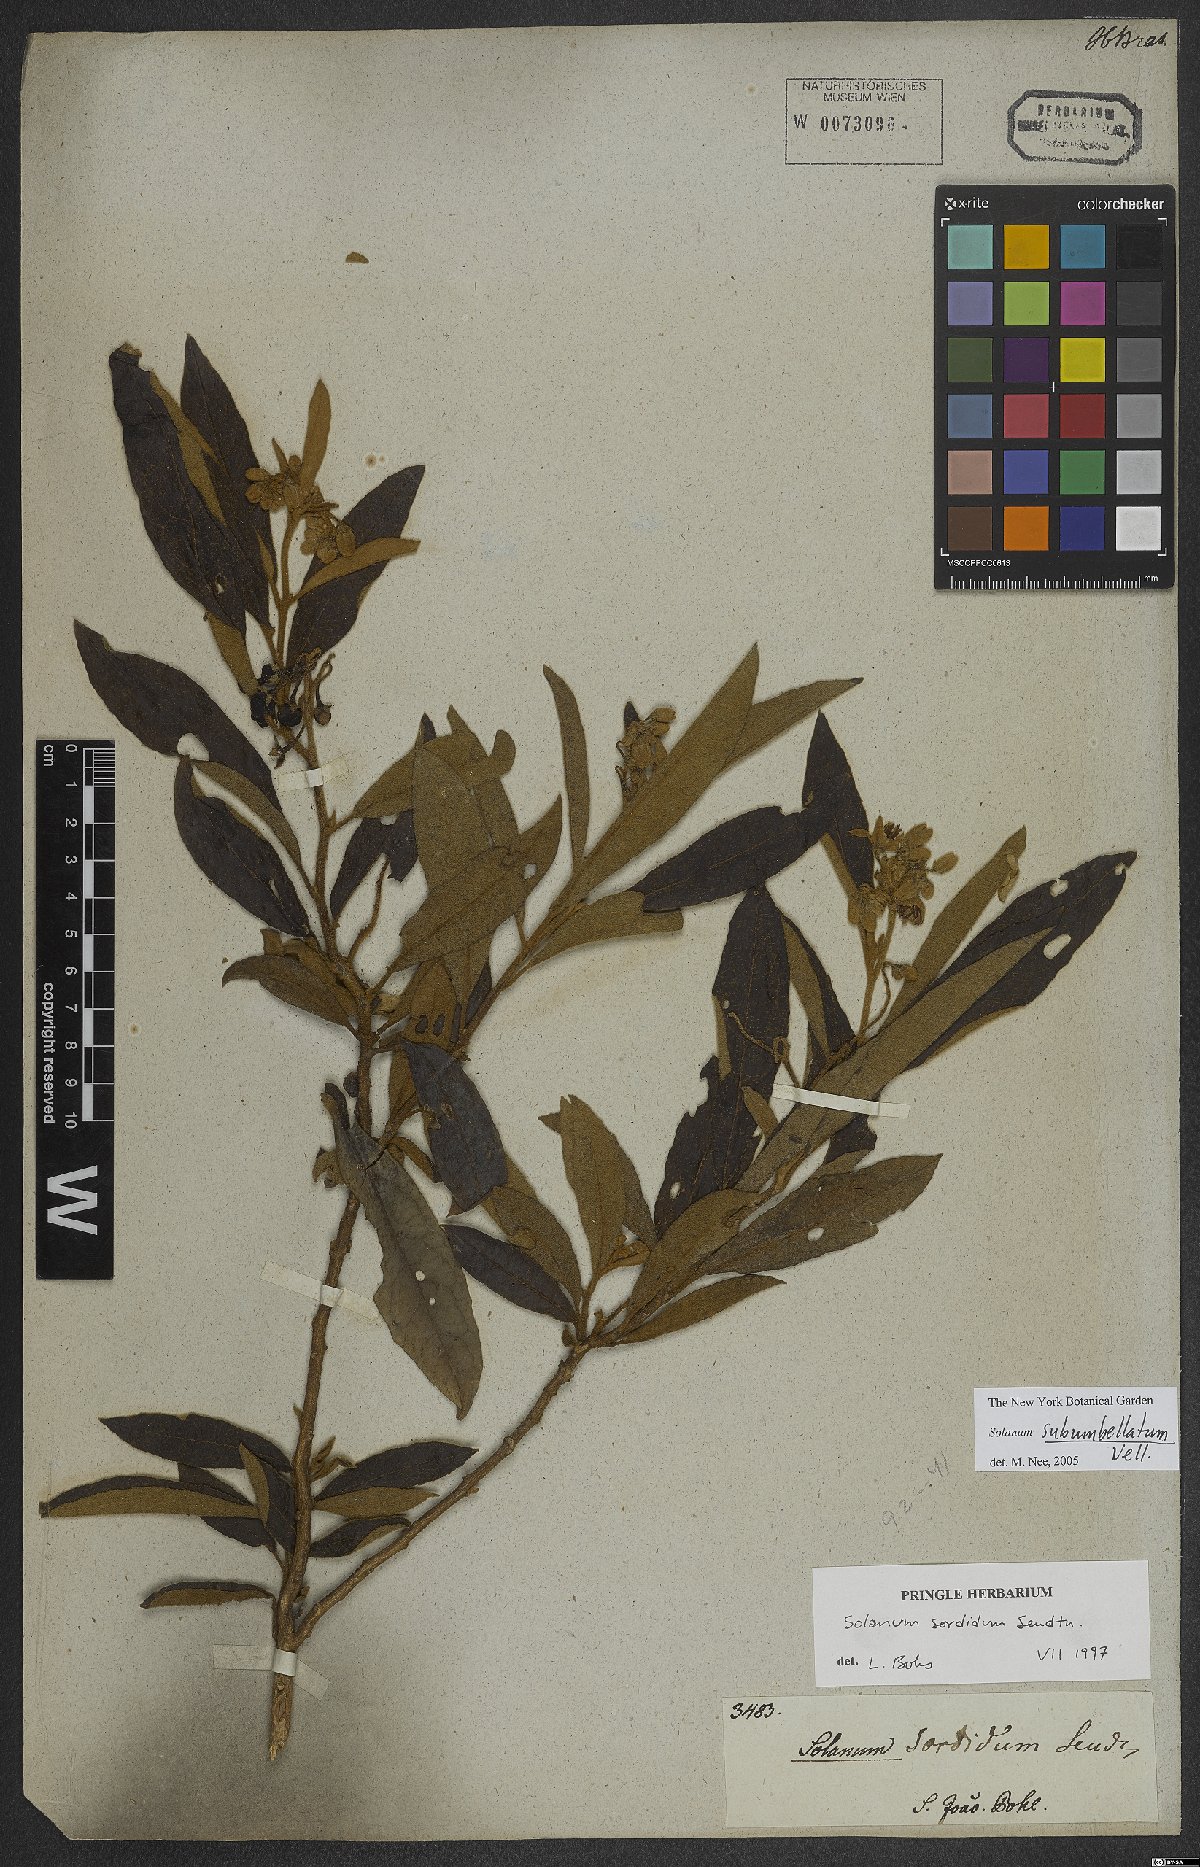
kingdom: Plantae
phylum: Tracheophyta
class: Magnoliopsida
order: Solanales
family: Solanaceae
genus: Solanum
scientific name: Solanum subumbellatum
